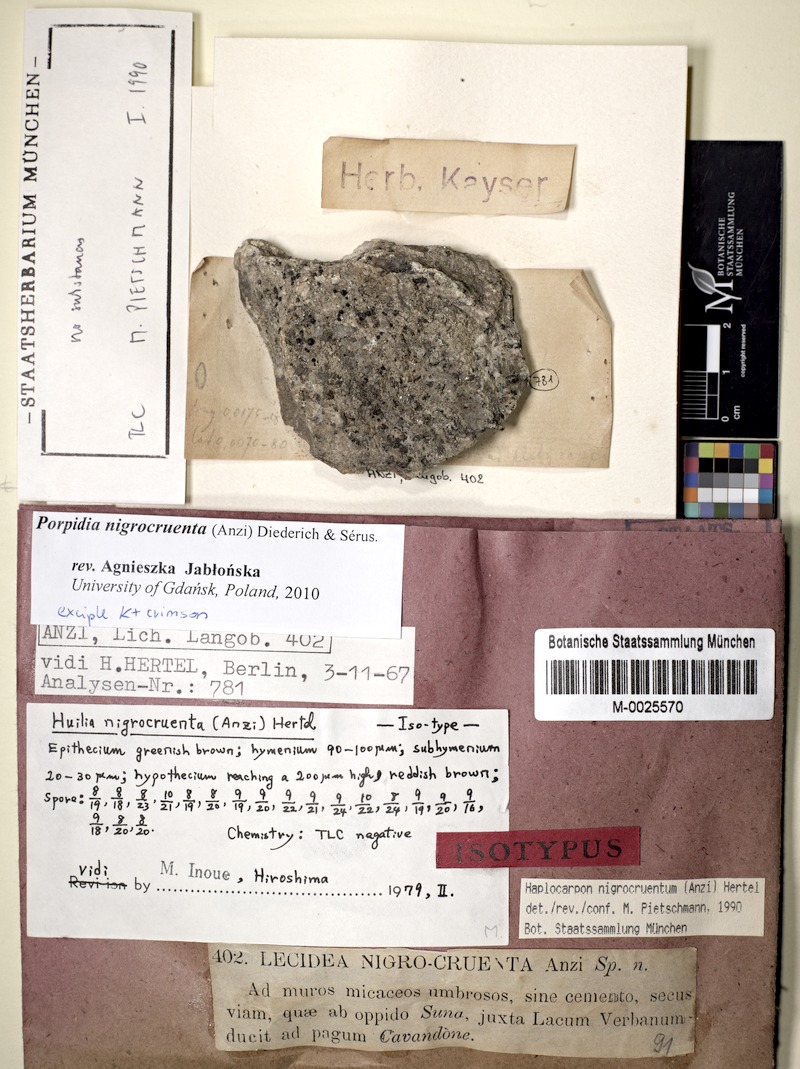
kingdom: Fungi
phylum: Ascomycota
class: Lecanoromycetes
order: Lecideales
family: Lecideaceae
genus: Porpidia
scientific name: Porpidia macrocarpa
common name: Common boulder lichen
